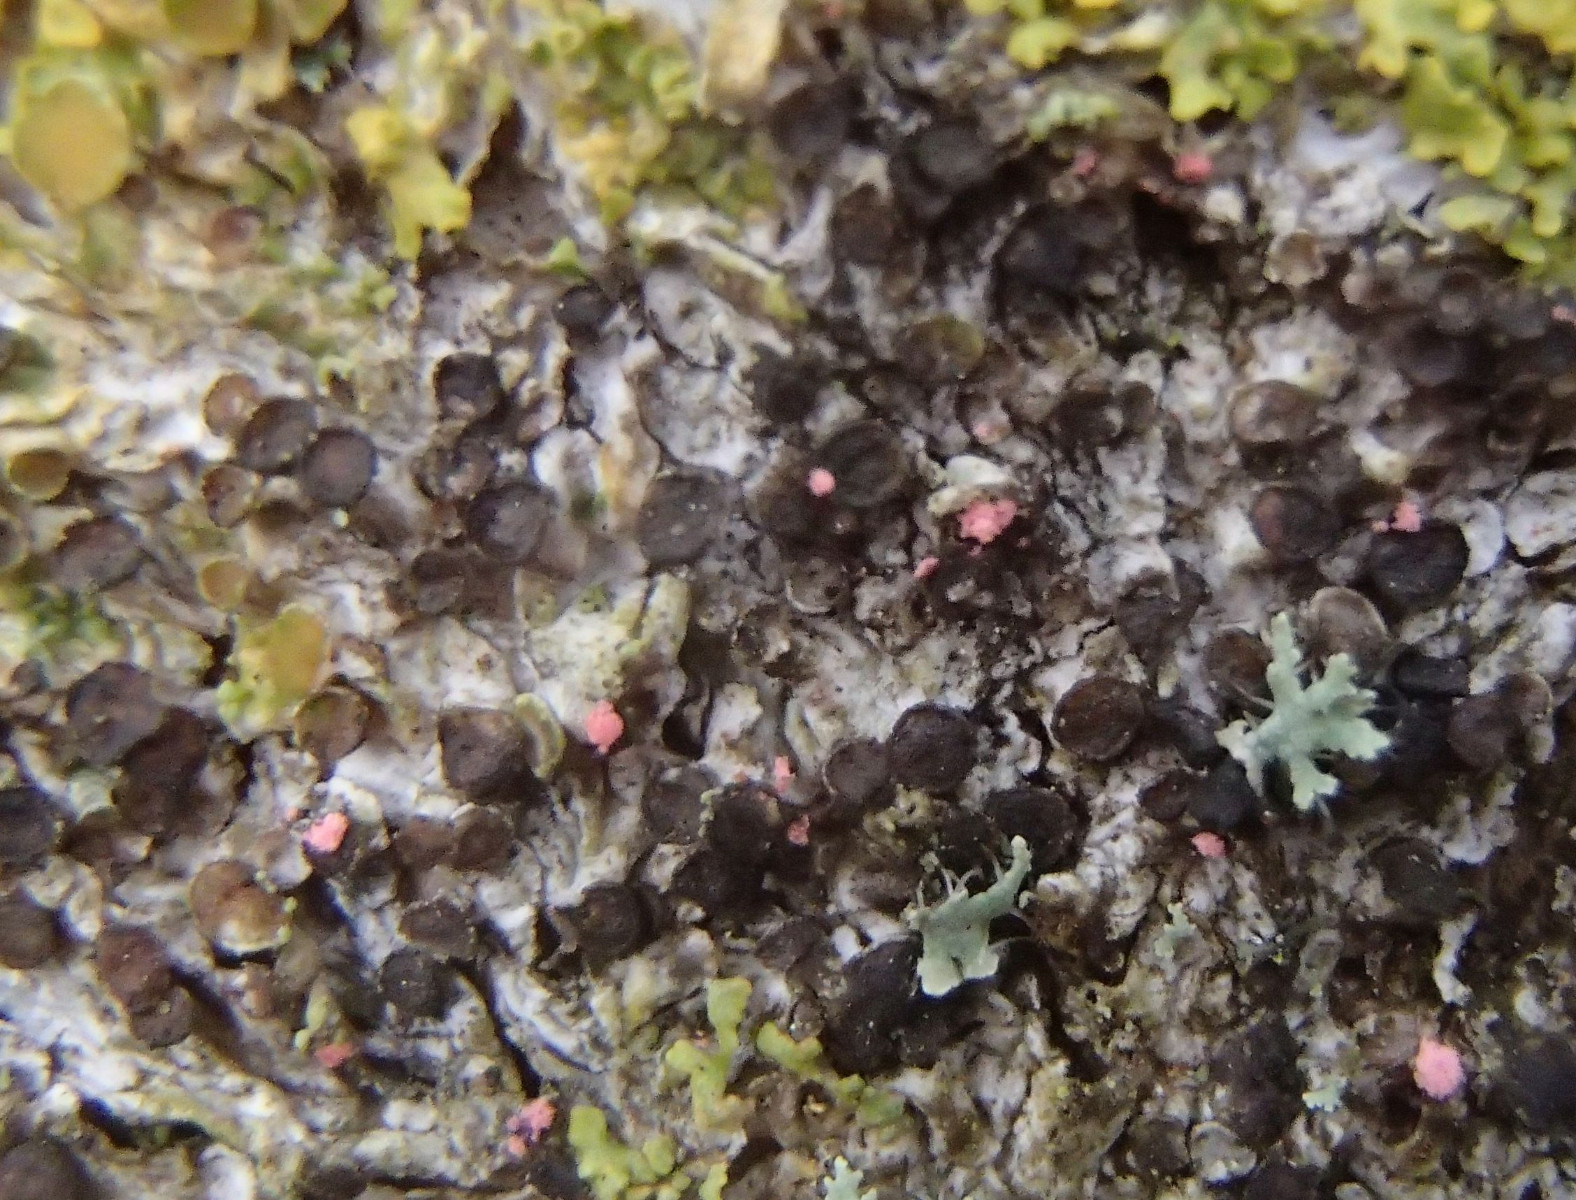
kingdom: Fungi
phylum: Ascomycota
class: Sordariomycetes
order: Hypocreales
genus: Illosporiopsis
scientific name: Illosporiopsis christiansenii
